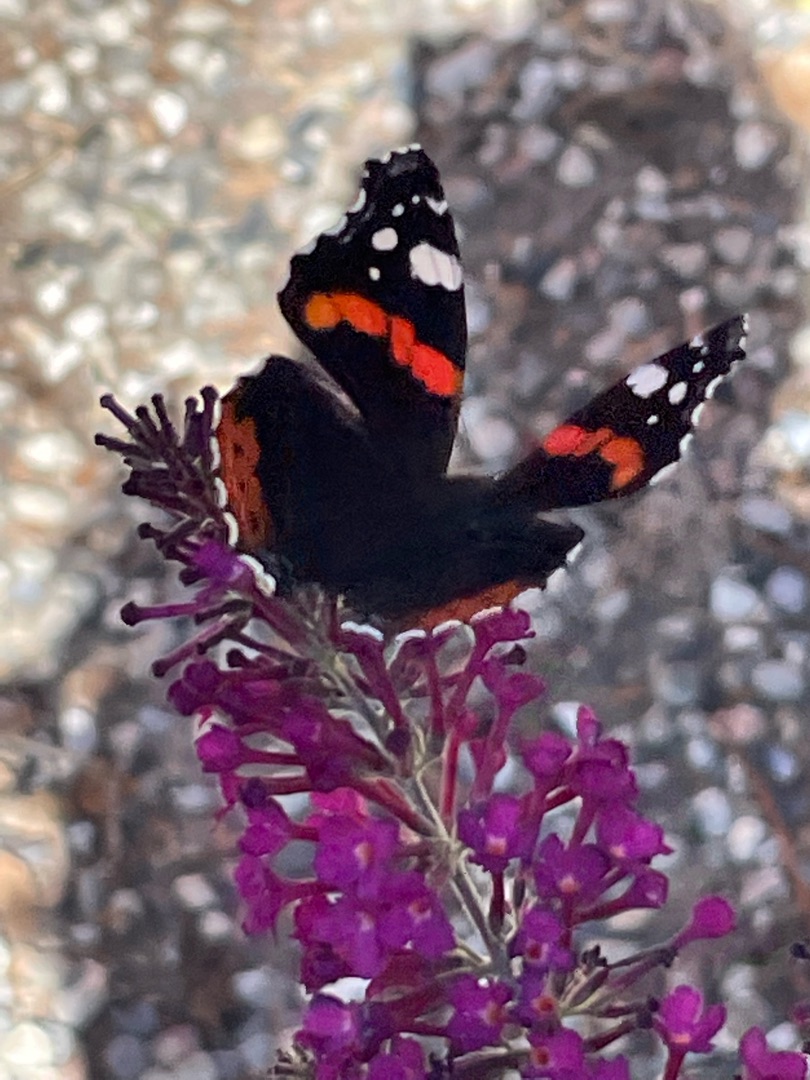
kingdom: Animalia
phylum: Arthropoda
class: Insecta
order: Lepidoptera
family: Nymphalidae
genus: Vanessa
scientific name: Vanessa atalanta
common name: Admiral
